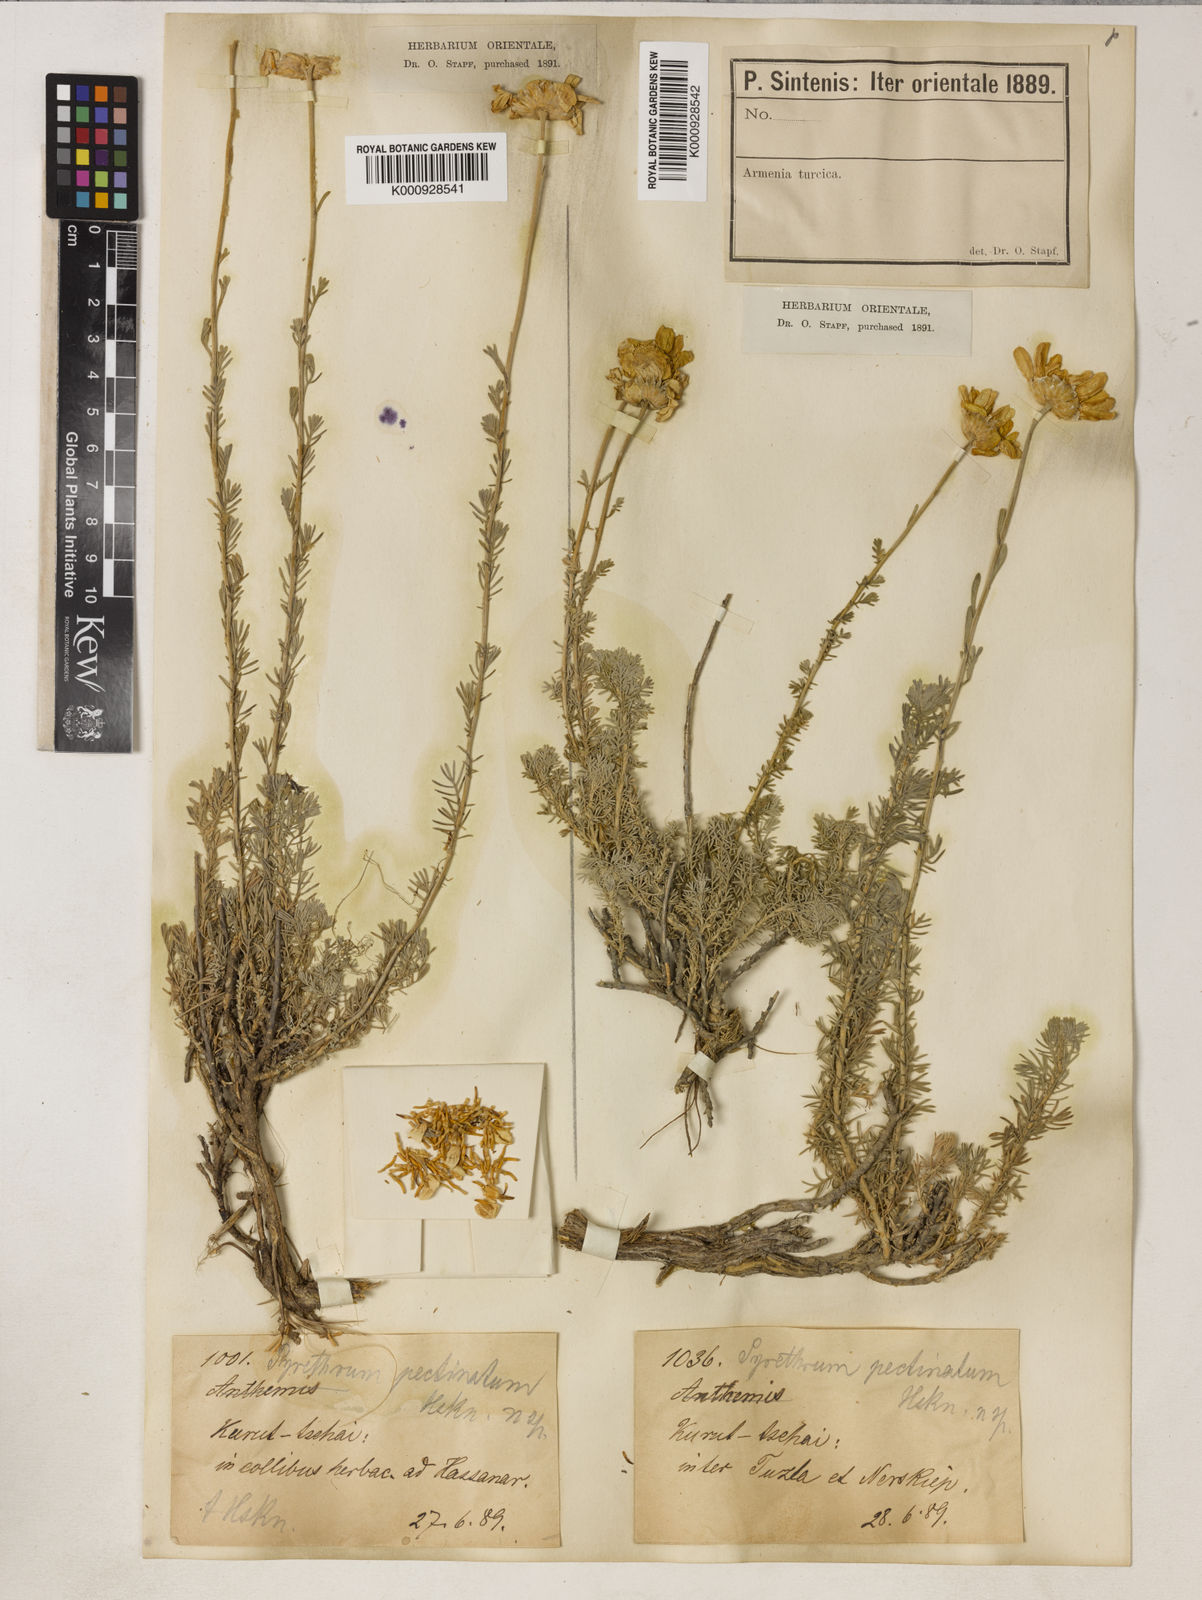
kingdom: Plantae
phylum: Tracheophyta
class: Magnoliopsida
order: Asterales
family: Asteraceae
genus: Tanacetum
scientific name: Tanacetum heterotomum
